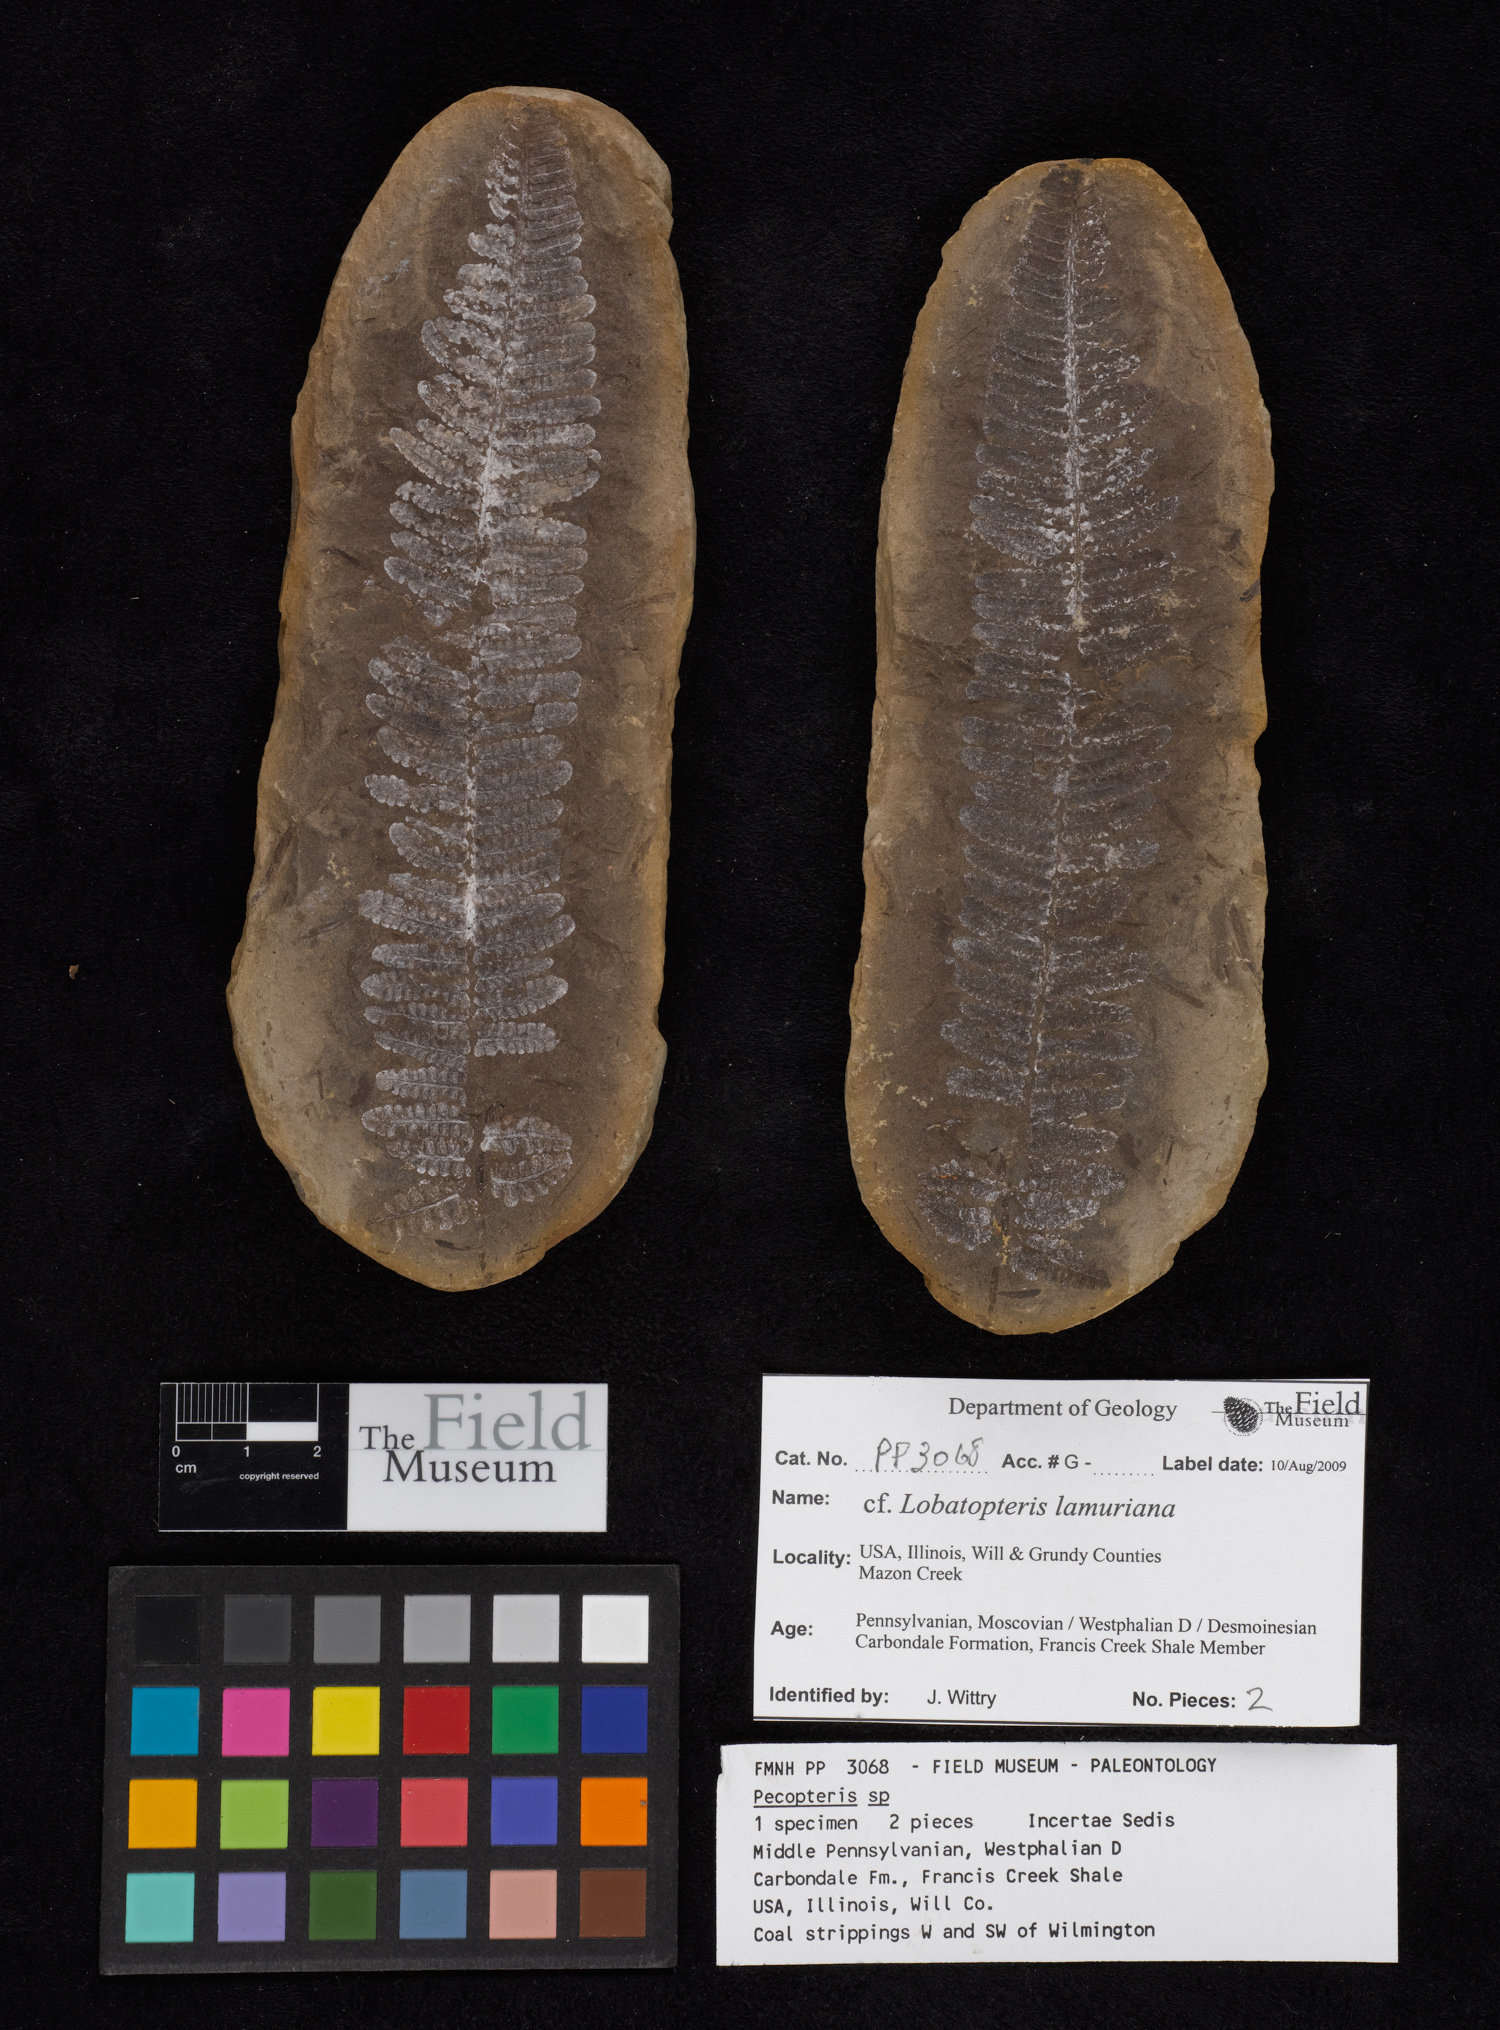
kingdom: Plantae
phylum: Tracheophyta
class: Polypodiopsida
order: Marattiales
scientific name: Marattiales
